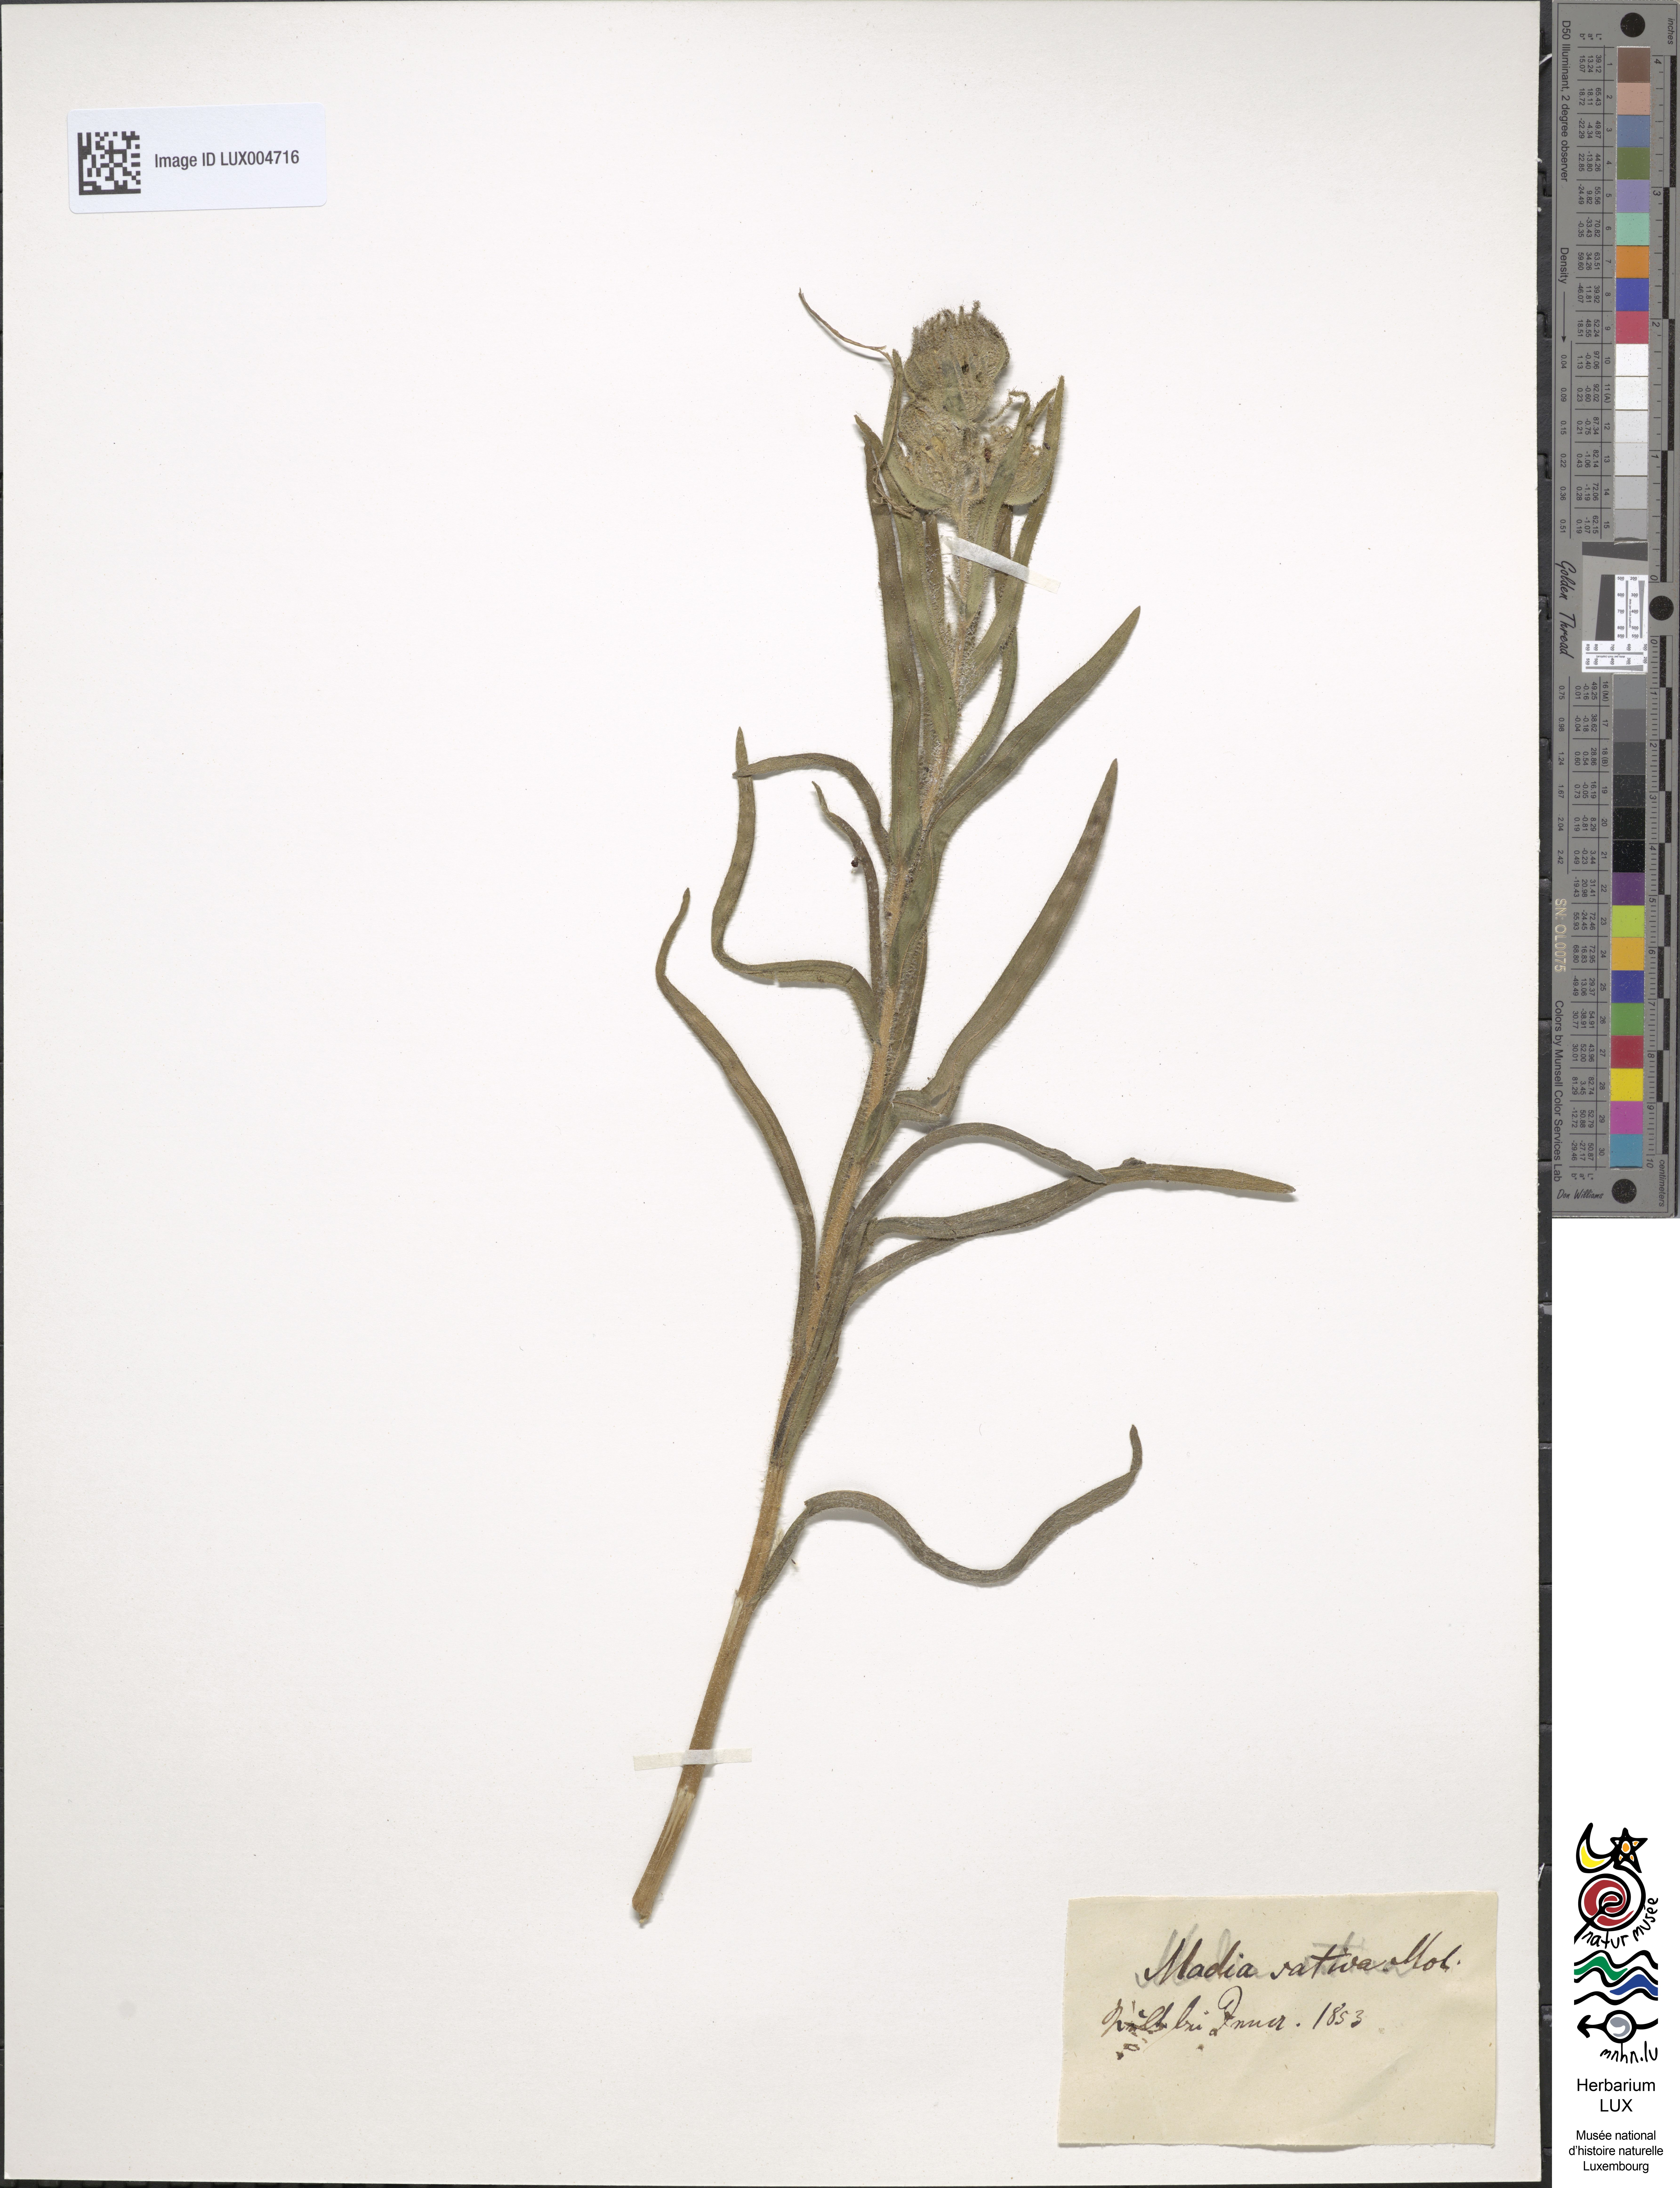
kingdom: Plantae
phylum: Tracheophyta
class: Magnoliopsida
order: Asterales
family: Asteraceae
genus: Madia
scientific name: Madia sativa
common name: Coast tarweed
